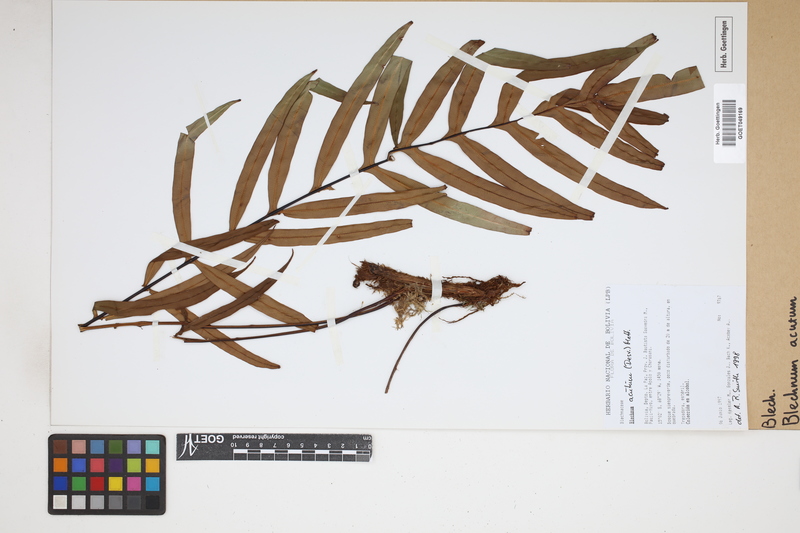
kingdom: Plantae
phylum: Tracheophyta
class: Polypodiopsida
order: Polypodiales
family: Blechnaceae
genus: Lomaridium
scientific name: Lomaridium acutum
